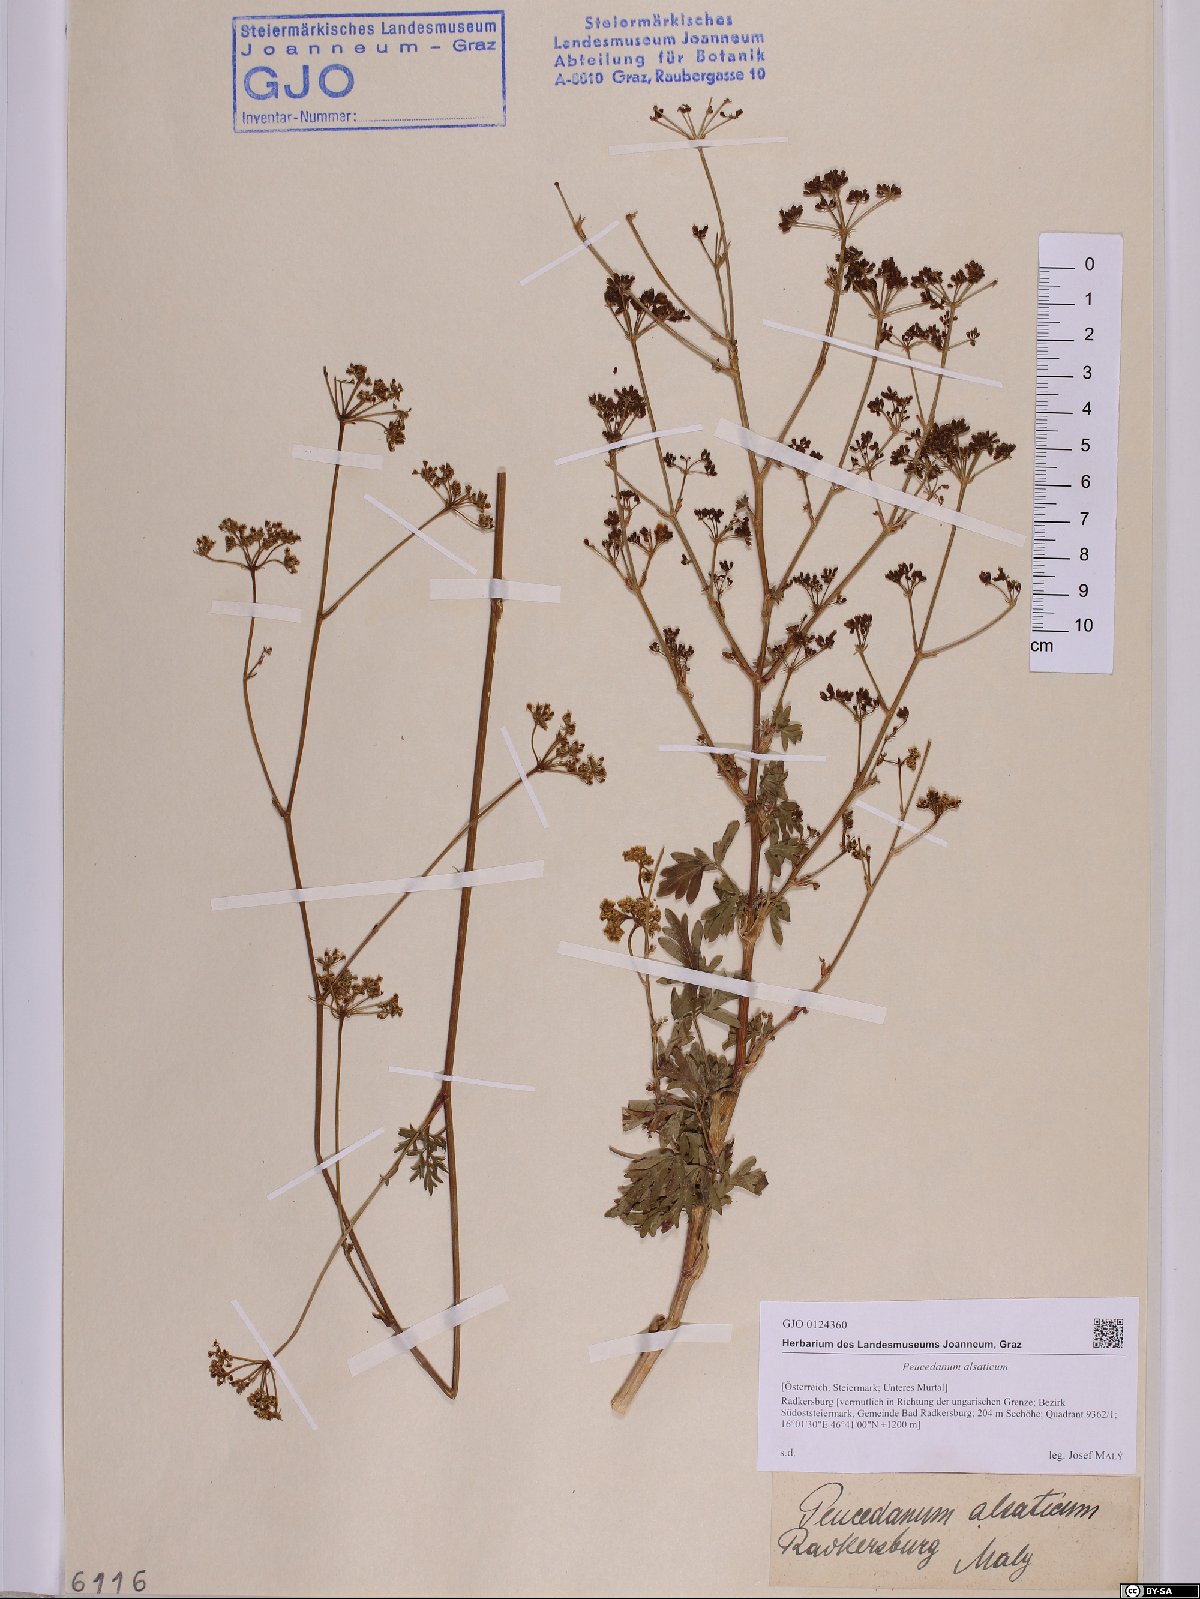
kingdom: Plantae
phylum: Tracheophyta
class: Magnoliopsida
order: Apiales
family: Apiaceae
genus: Xanthoselinum
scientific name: Xanthoselinum alsaticum
